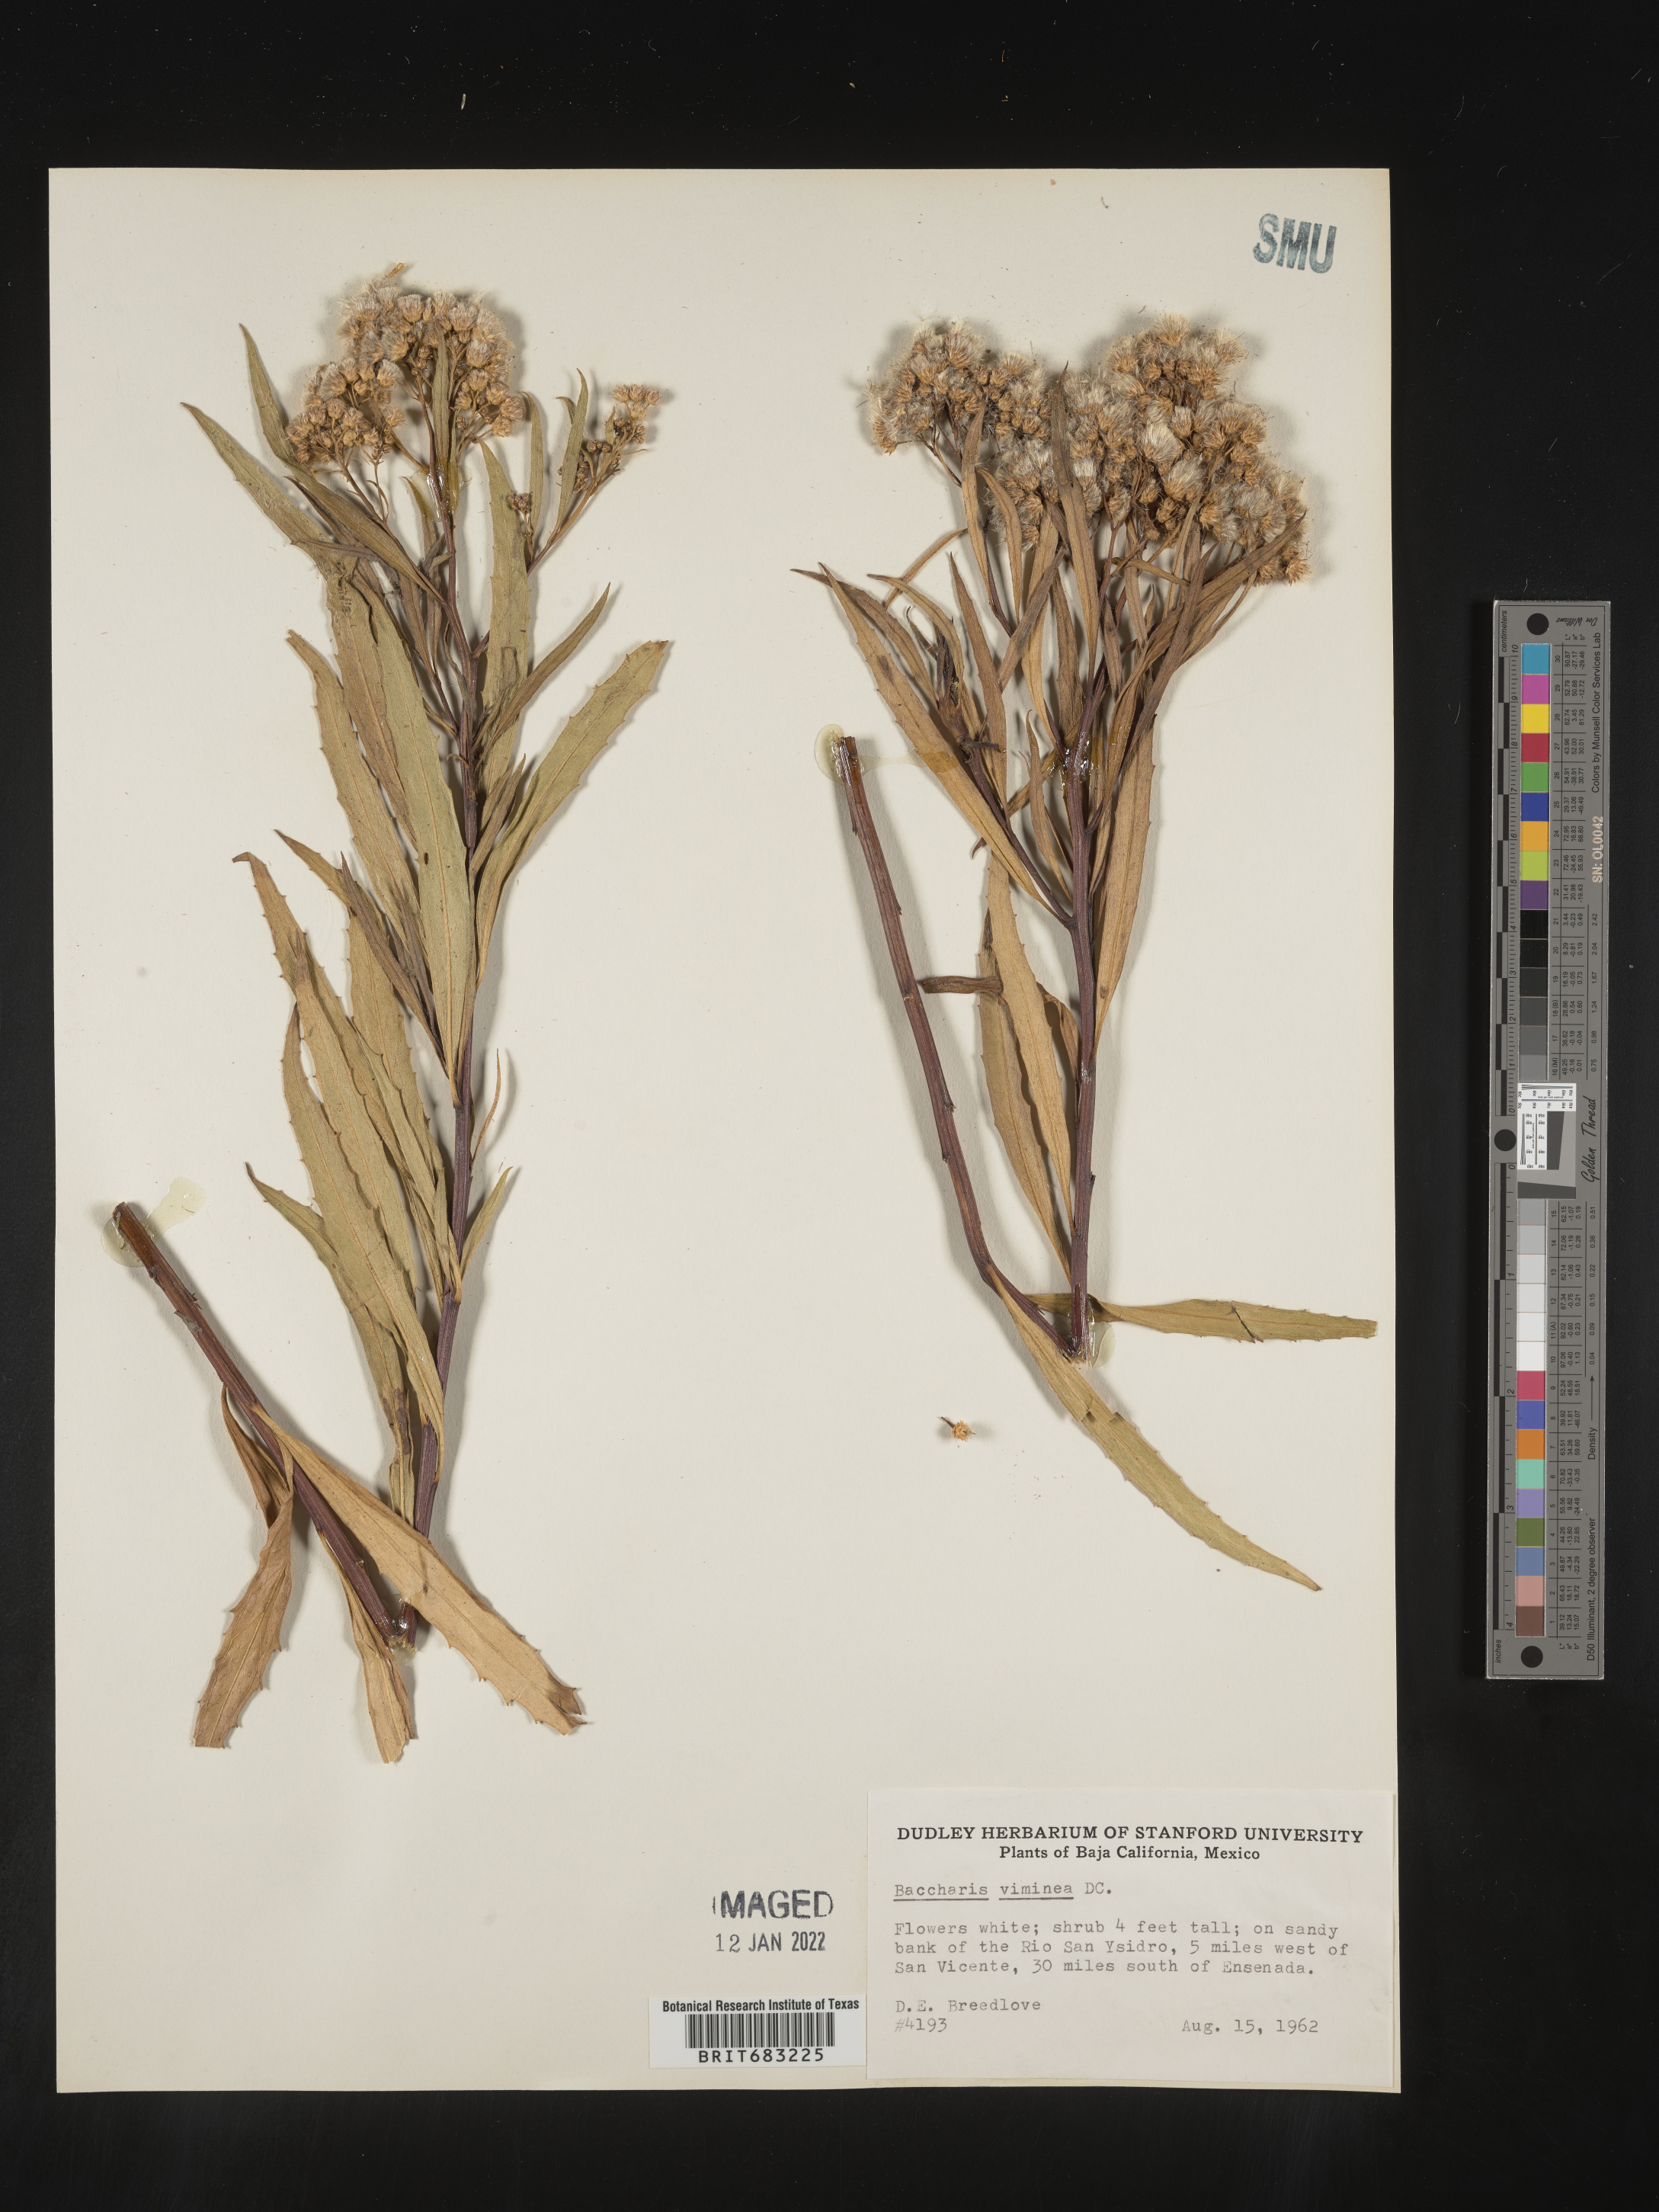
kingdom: Plantae
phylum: Tracheophyta
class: Magnoliopsida
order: Asterales
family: Asteraceae
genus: Baccharis
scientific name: Baccharis salicifolia
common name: Sticky baccharis
